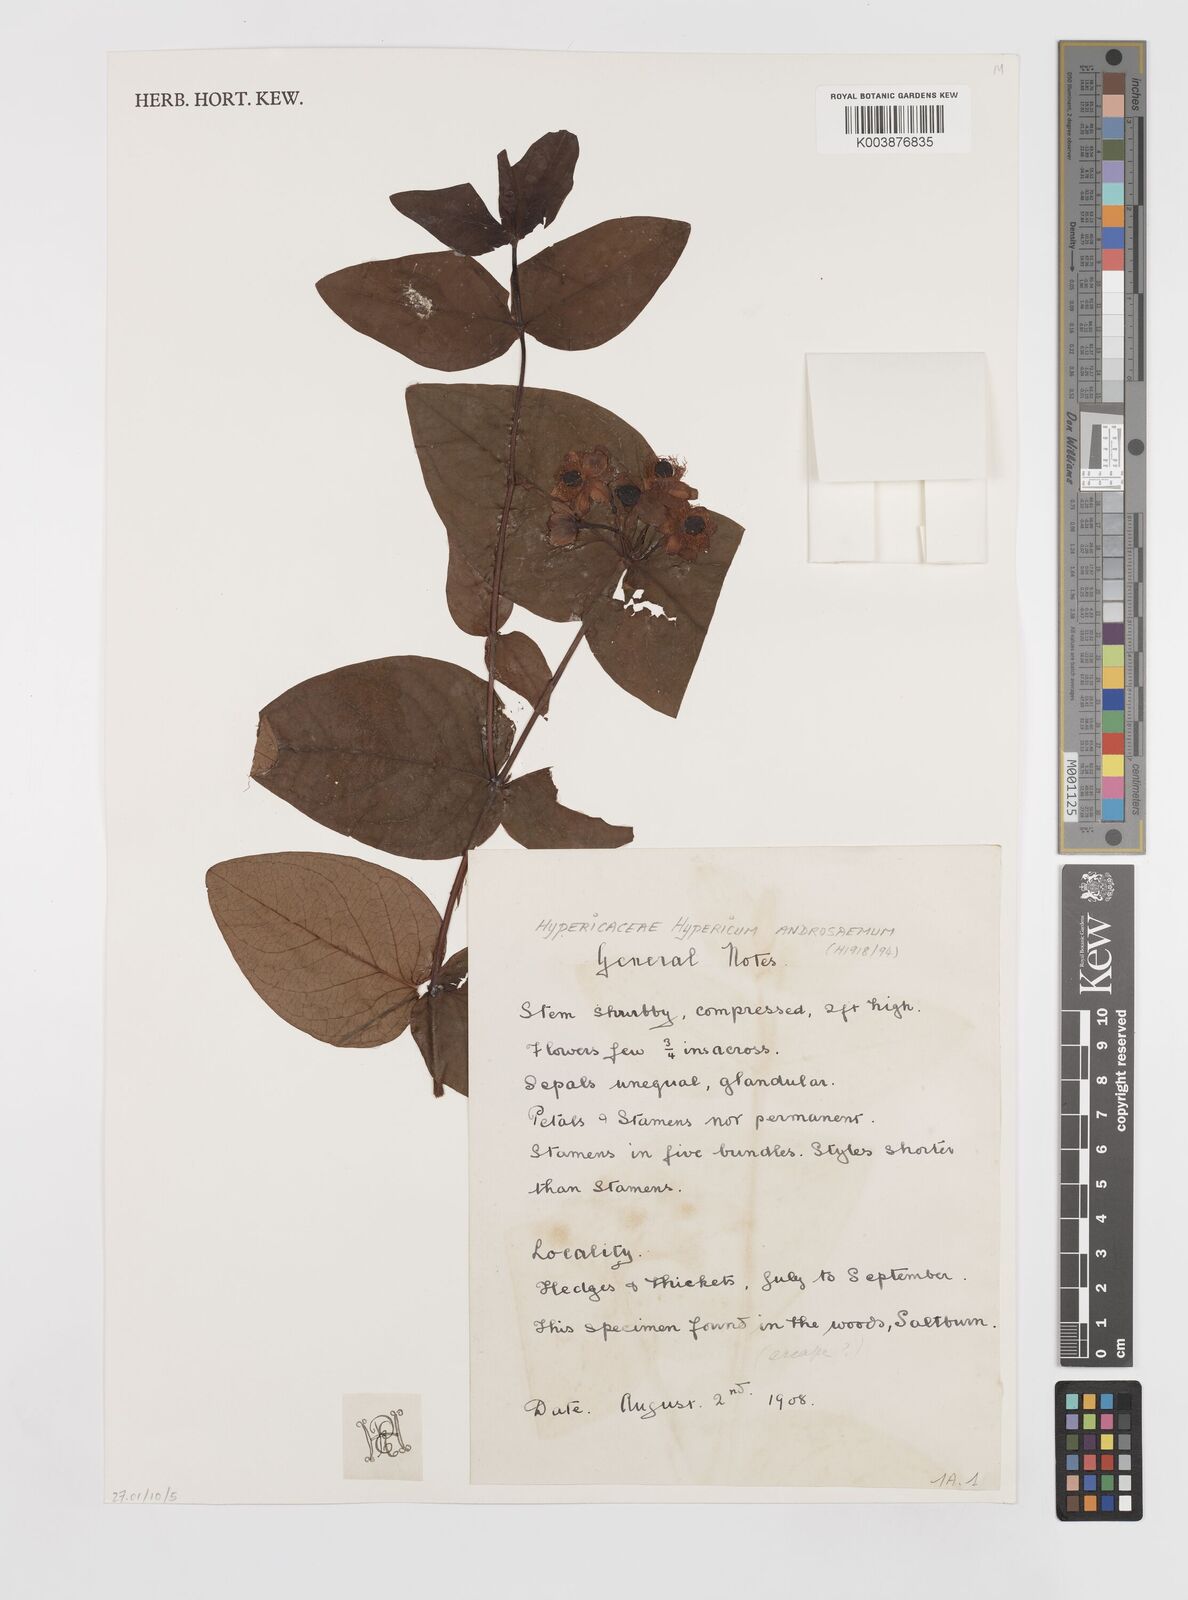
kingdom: Plantae
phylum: Tracheophyta
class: Magnoliopsida
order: Malpighiales
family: Hypericaceae
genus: Hypericum
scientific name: Hypericum androsaemum
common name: Sweet-amber
